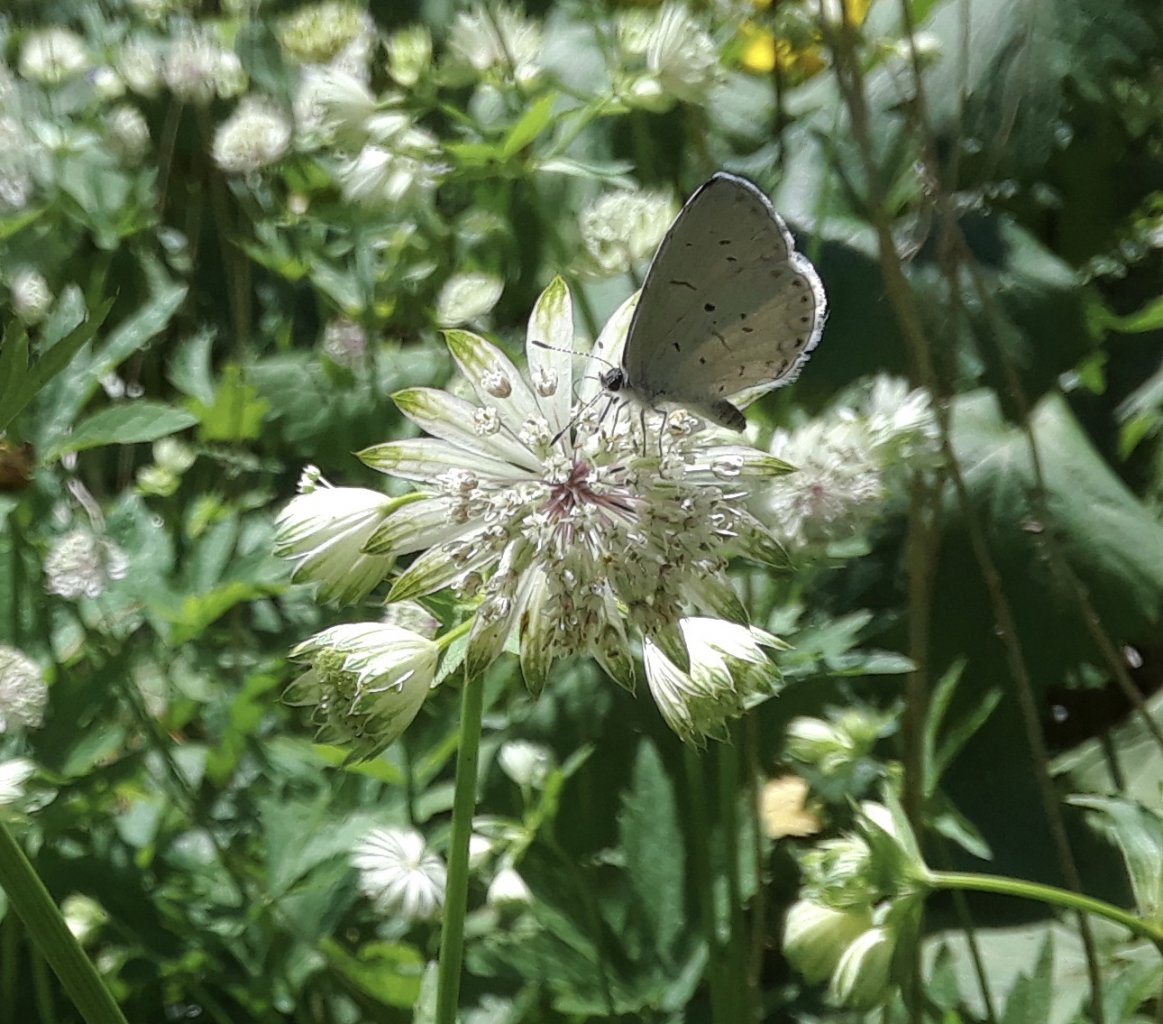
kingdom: Animalia
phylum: Arthropoda
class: Insecta
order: Lepidoptera
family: Lycaenidae
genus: Cyaniris
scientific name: Cyaniris neglecta
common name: Summer Azure
